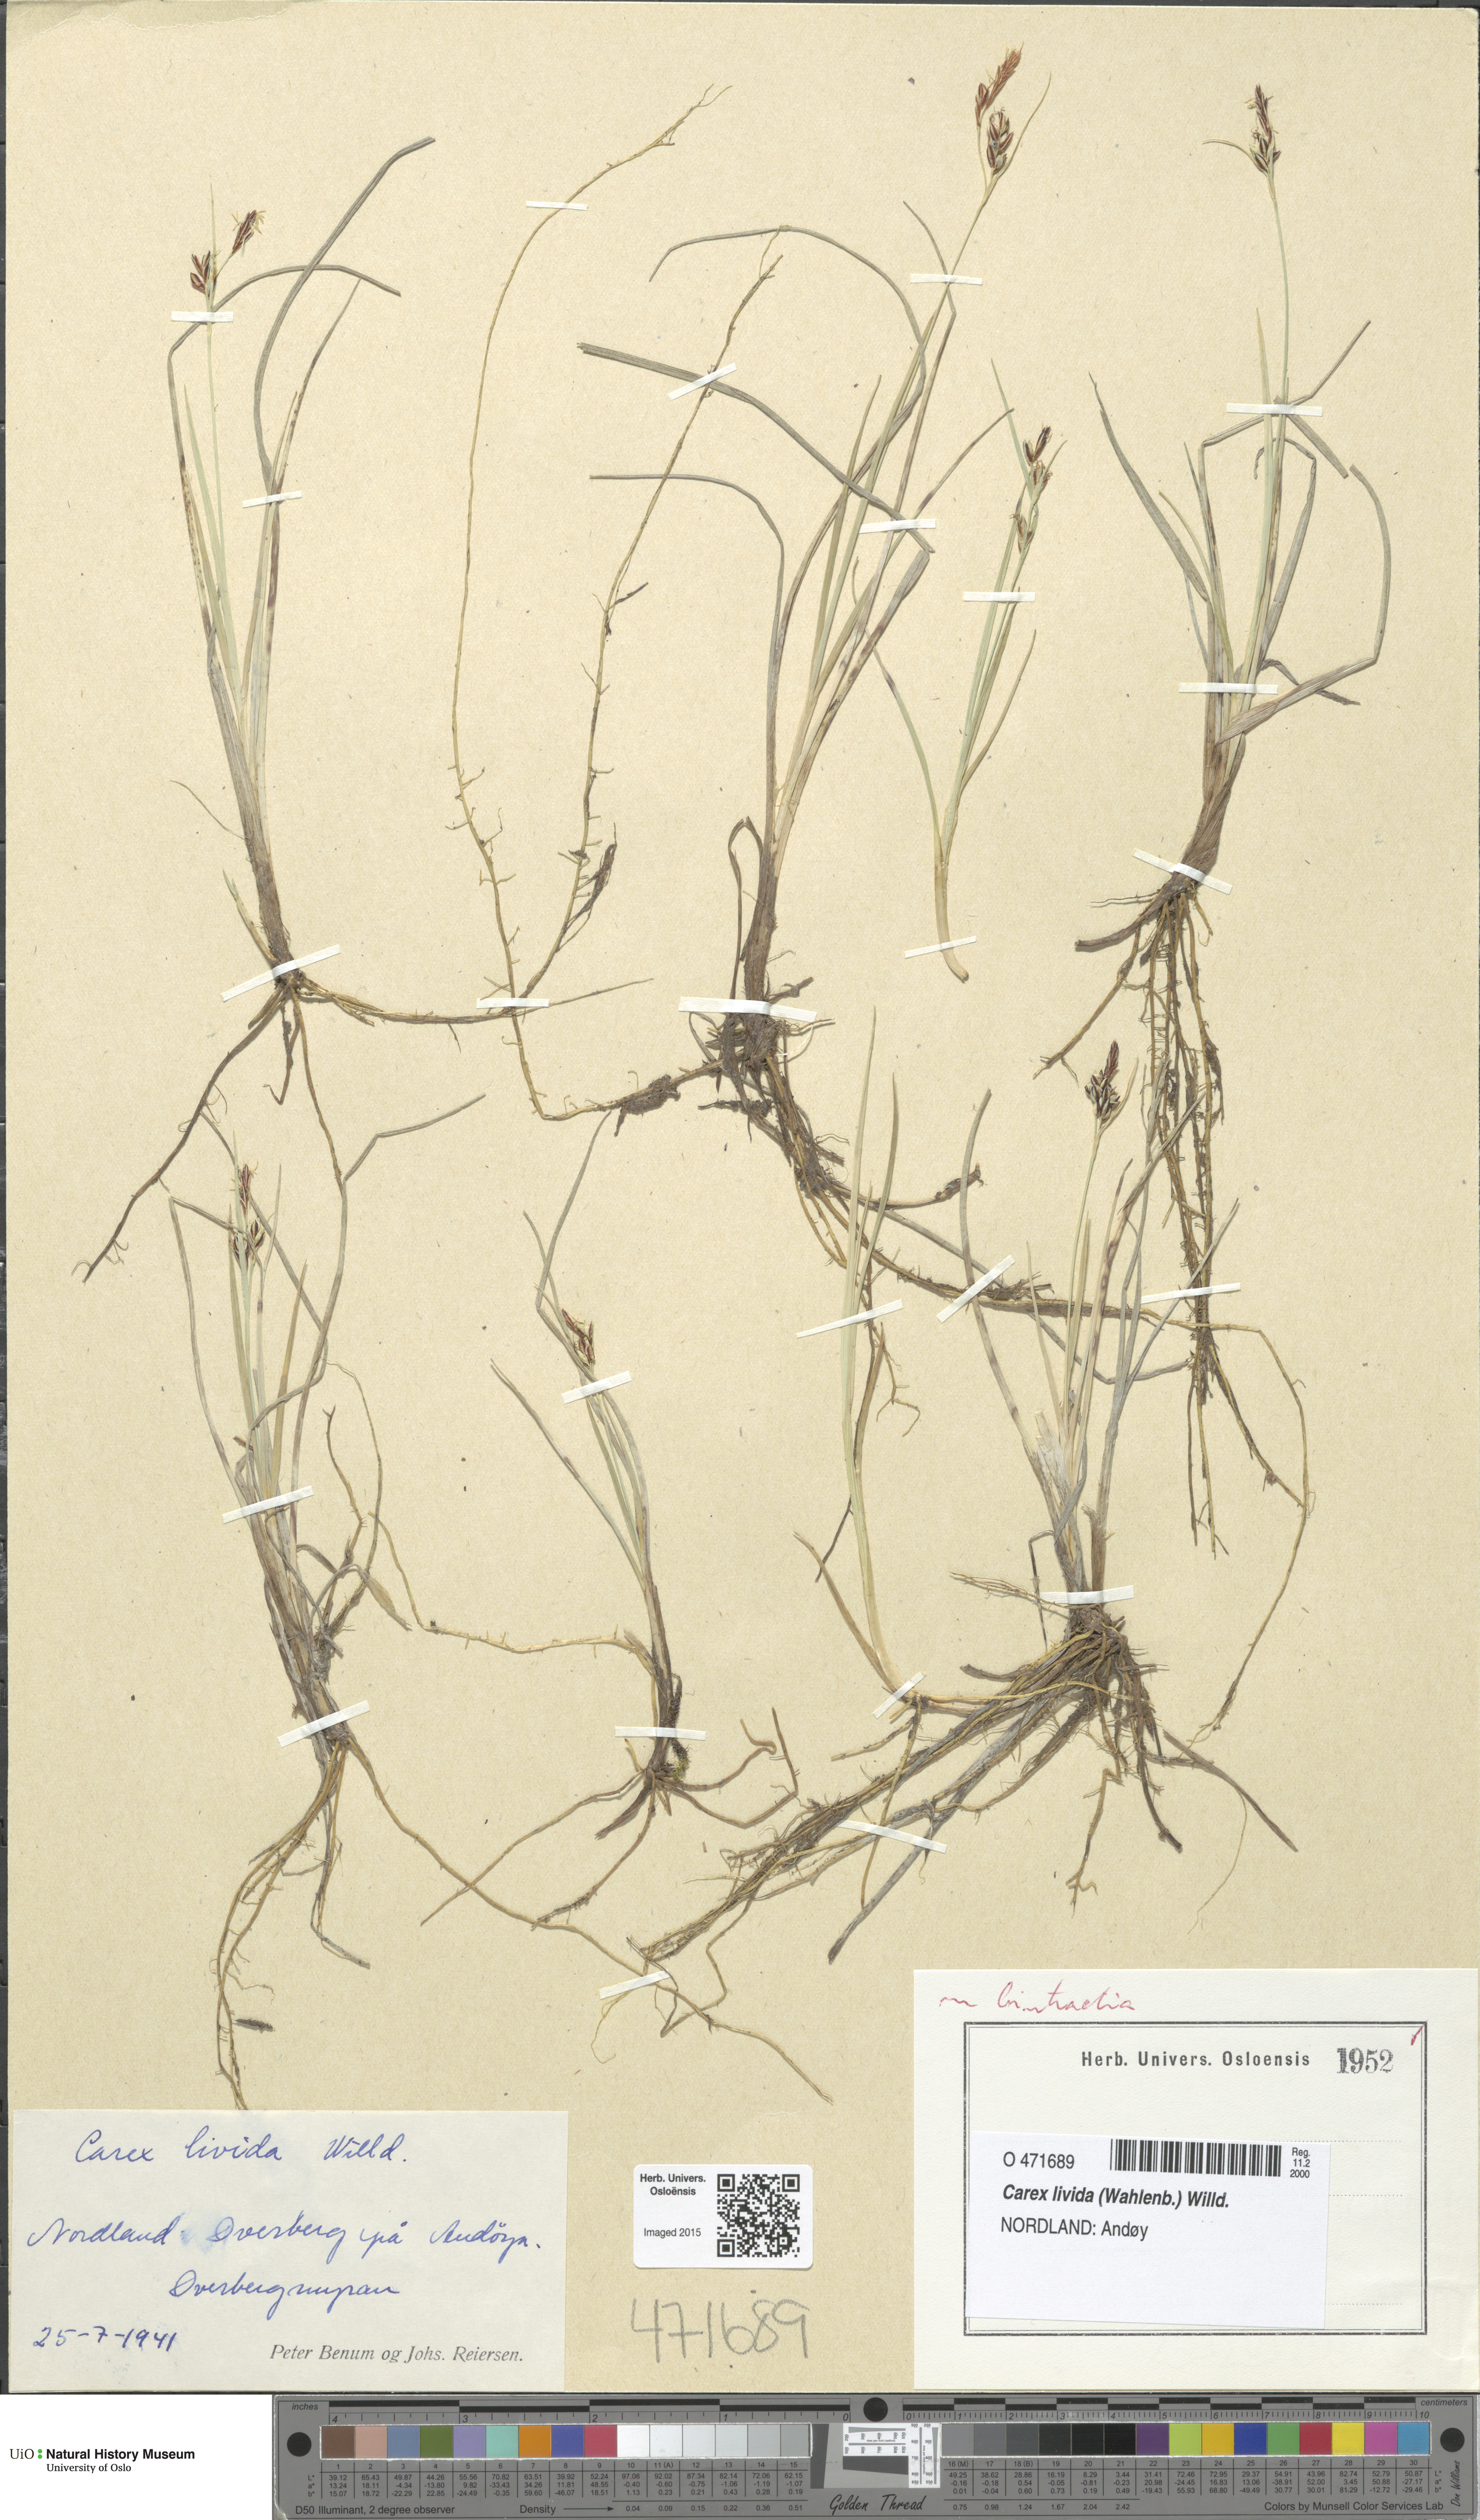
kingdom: Plantae
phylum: Tracheophyta
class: Liliopsida
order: Poales
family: Cyperaceae
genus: Carex
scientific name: Carex livida
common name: Livid sedge
